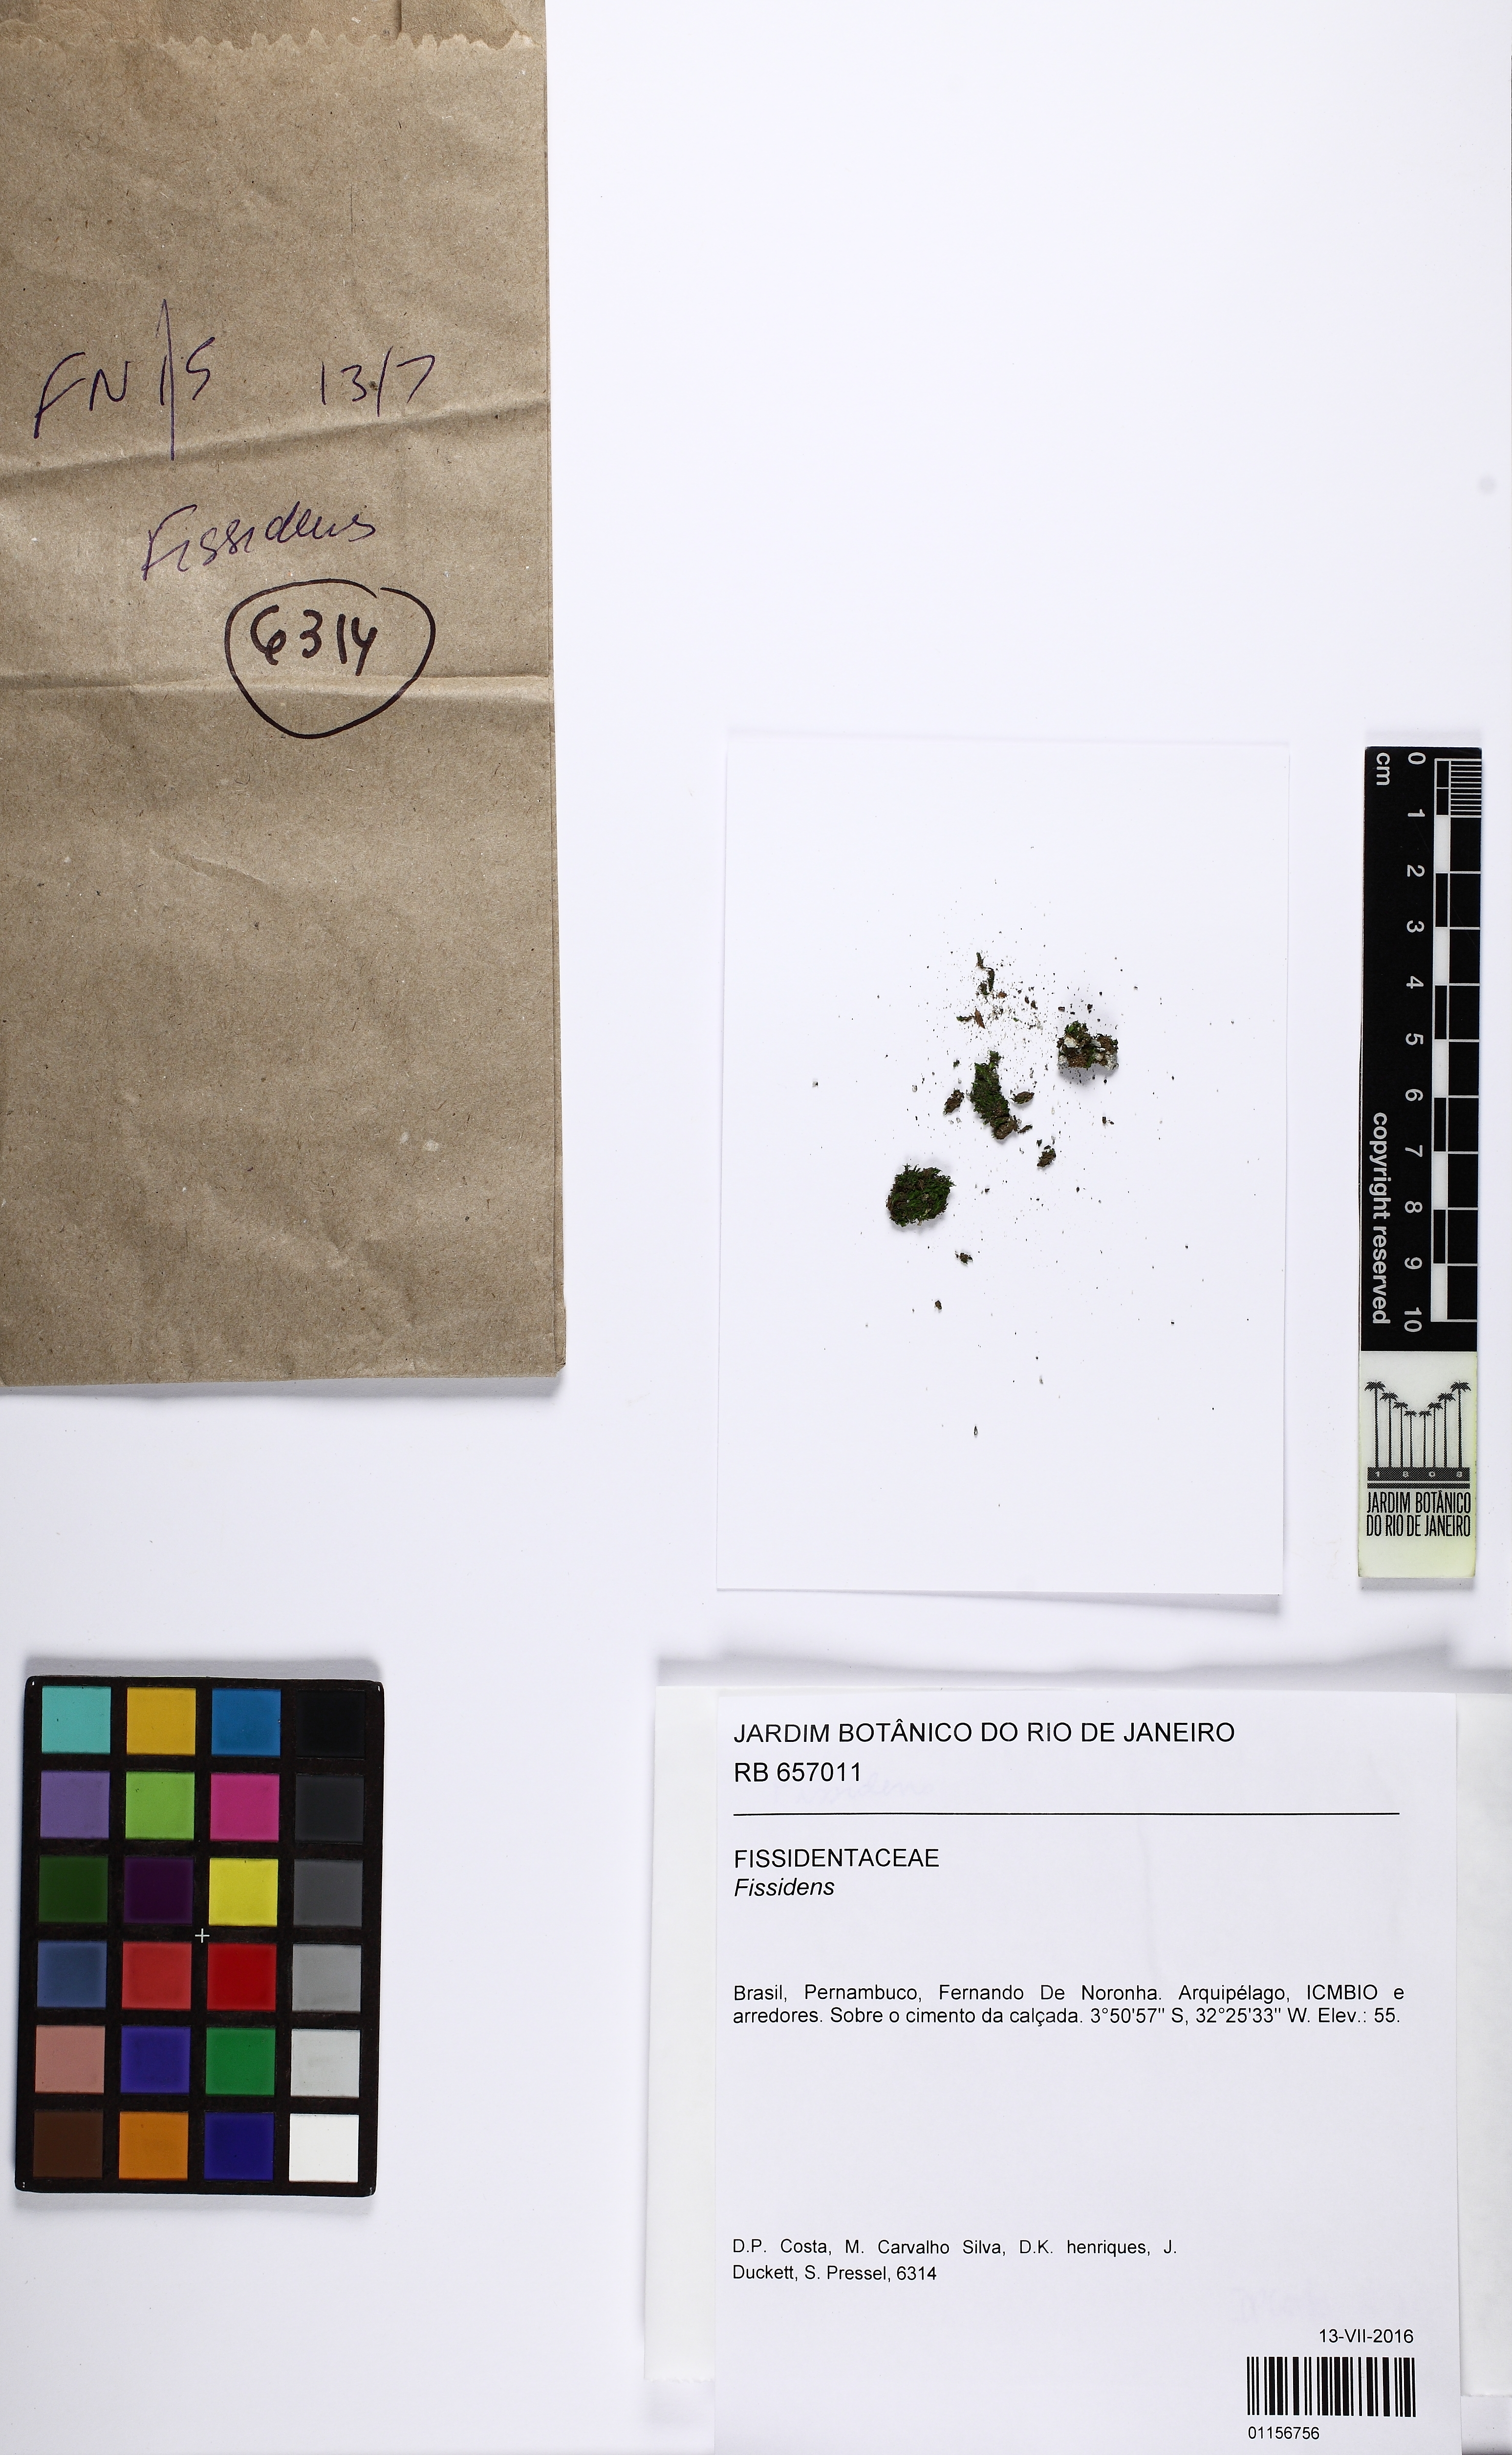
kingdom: Plantae
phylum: Bryophyta
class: Bryopsida
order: Dicranales
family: Fissidentaceae
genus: Fissidens
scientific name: Fissidens
